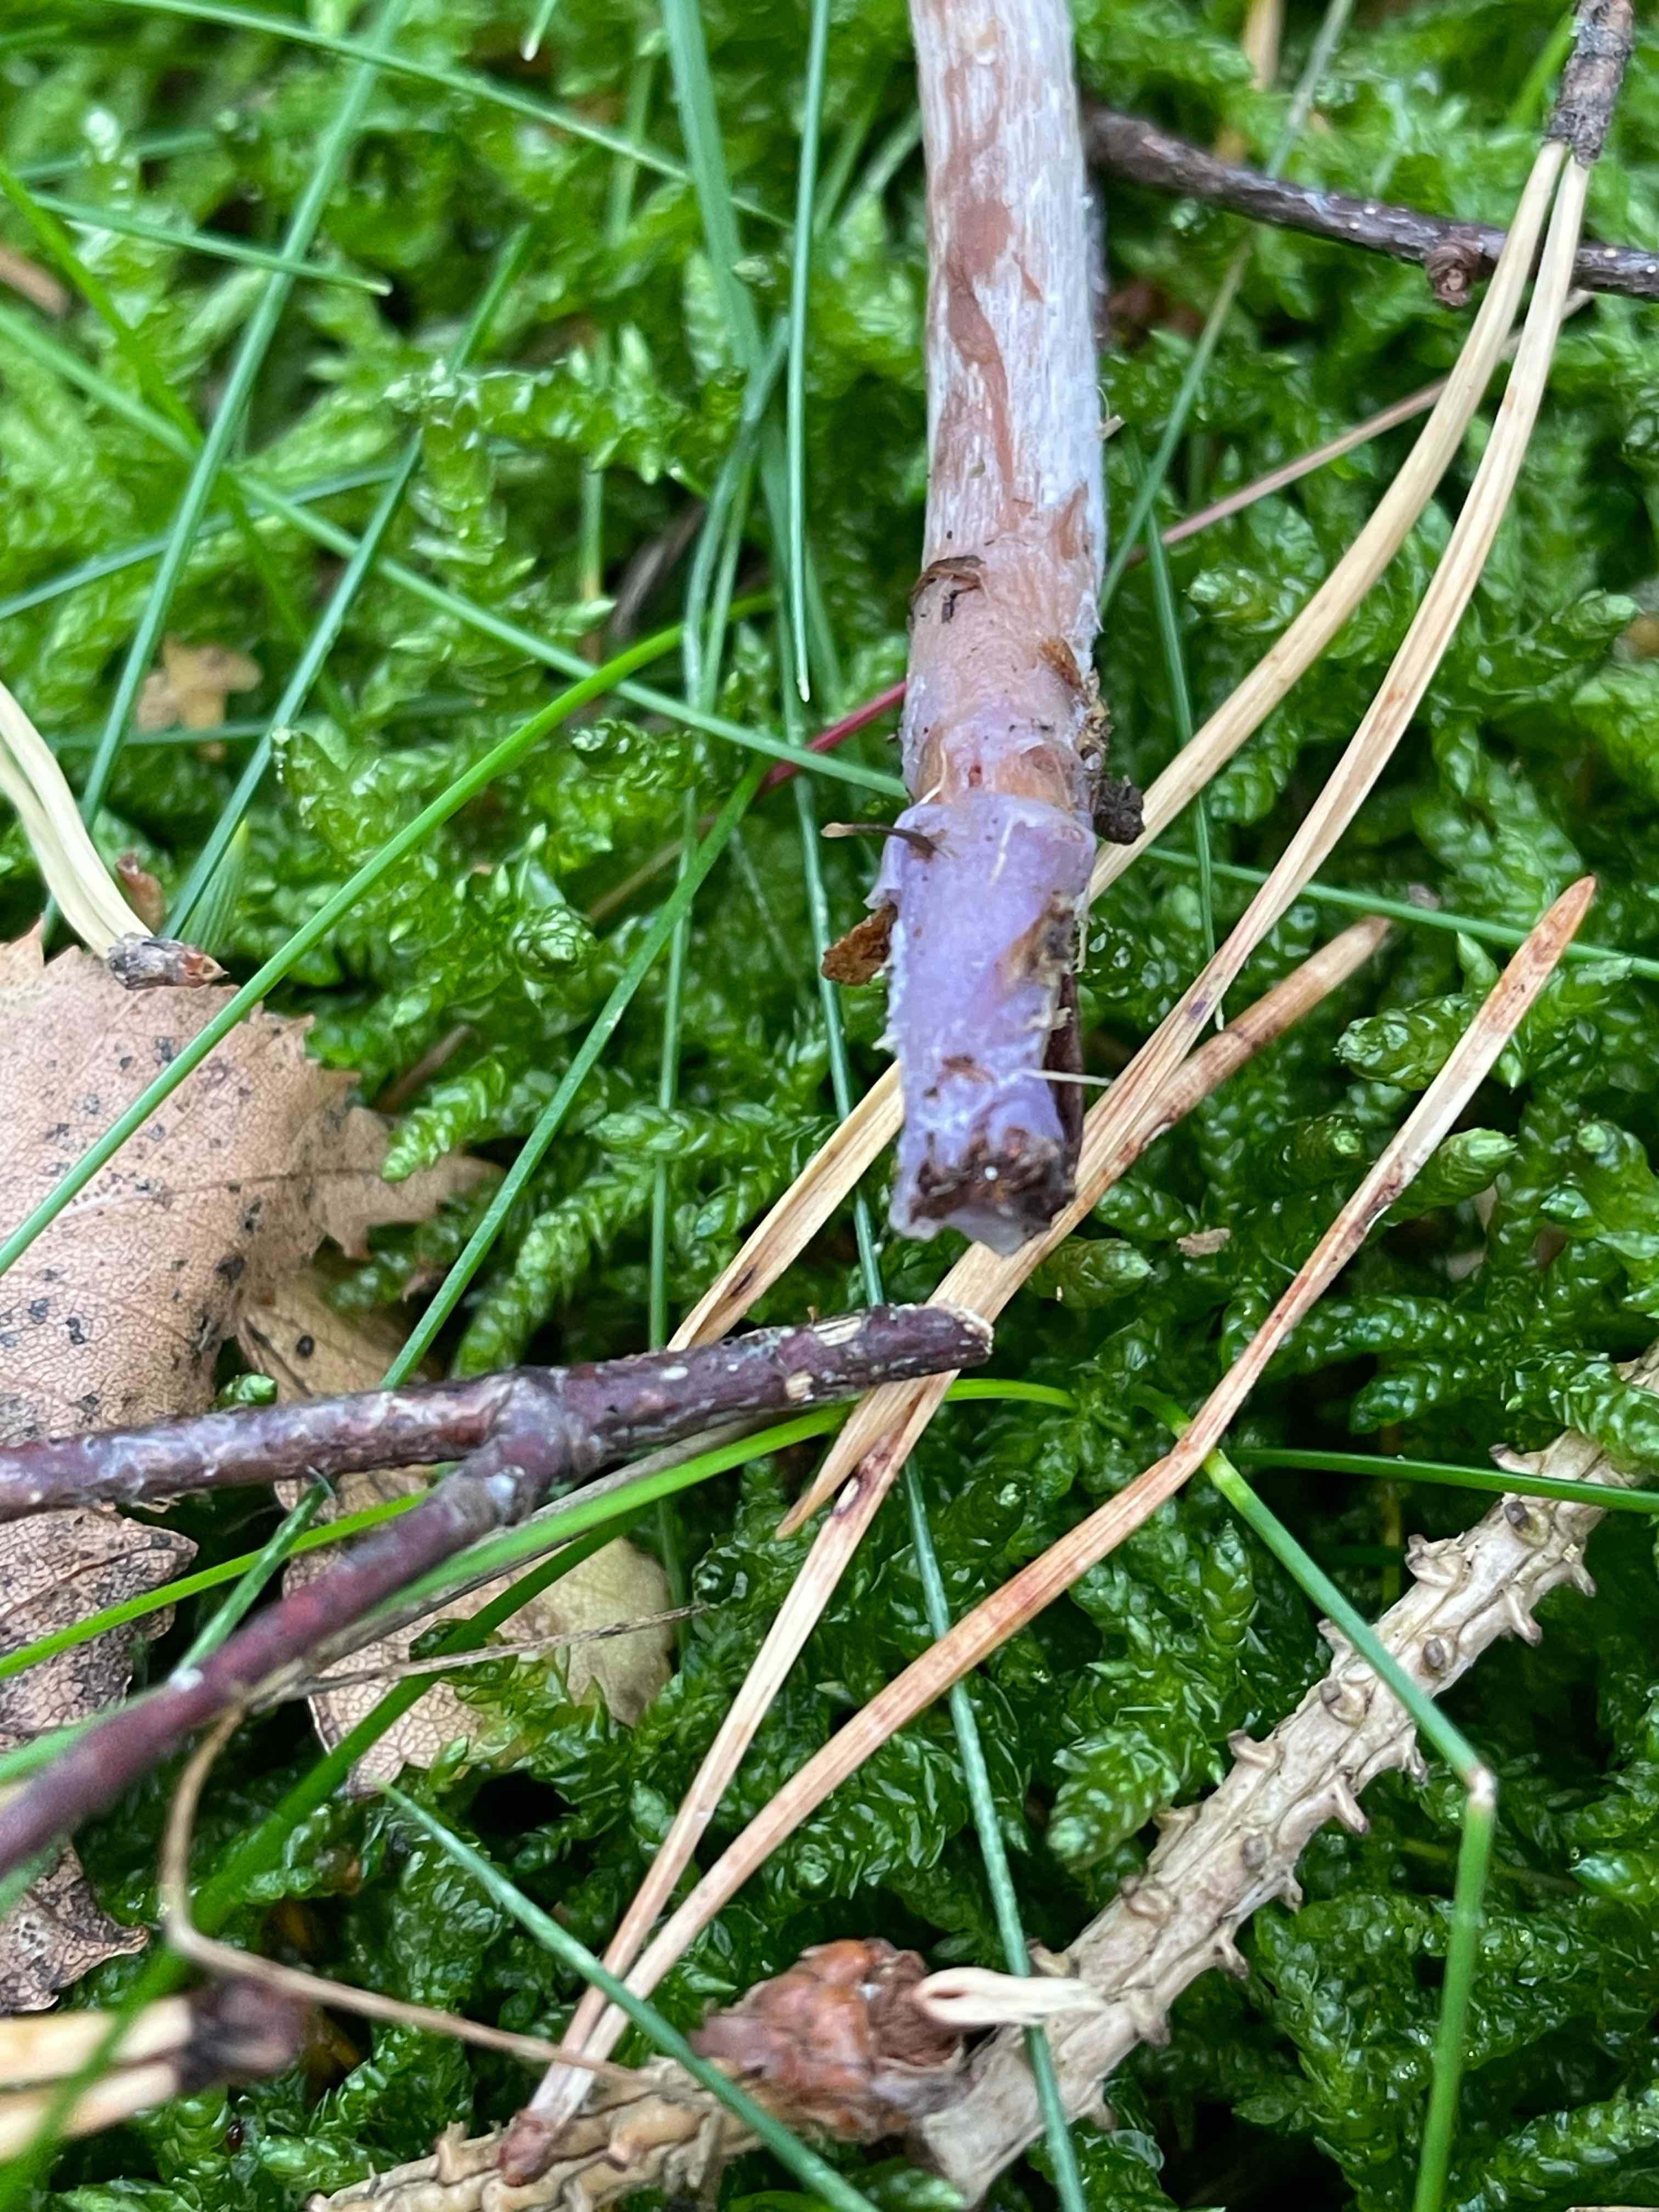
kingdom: Fungi
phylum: Basidiomycota
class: Agaricomycetes
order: Agaricales
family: Cortinariaceae
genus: Cortinarius
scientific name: Cortinarius
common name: pelargonie-slørhat
